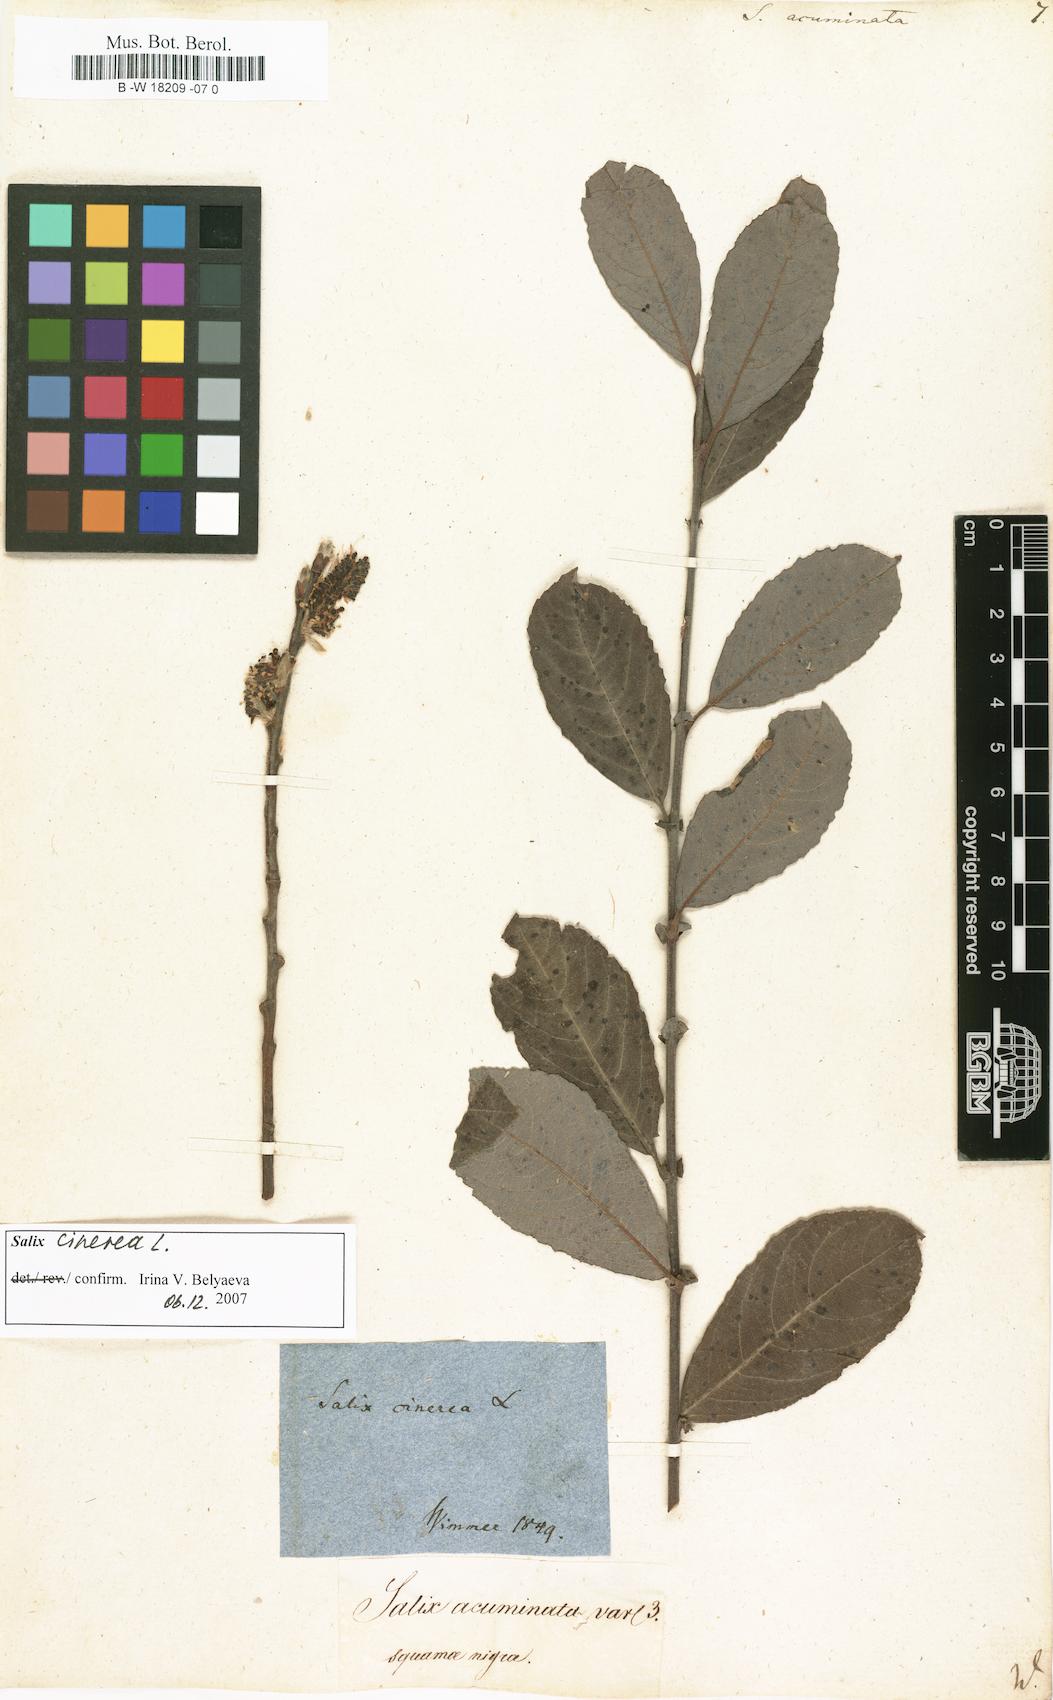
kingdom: Plantae
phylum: Tracheophyta
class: Magnoliopsida
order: Malpighiales
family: Salicaceae
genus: Salix
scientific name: Salix
